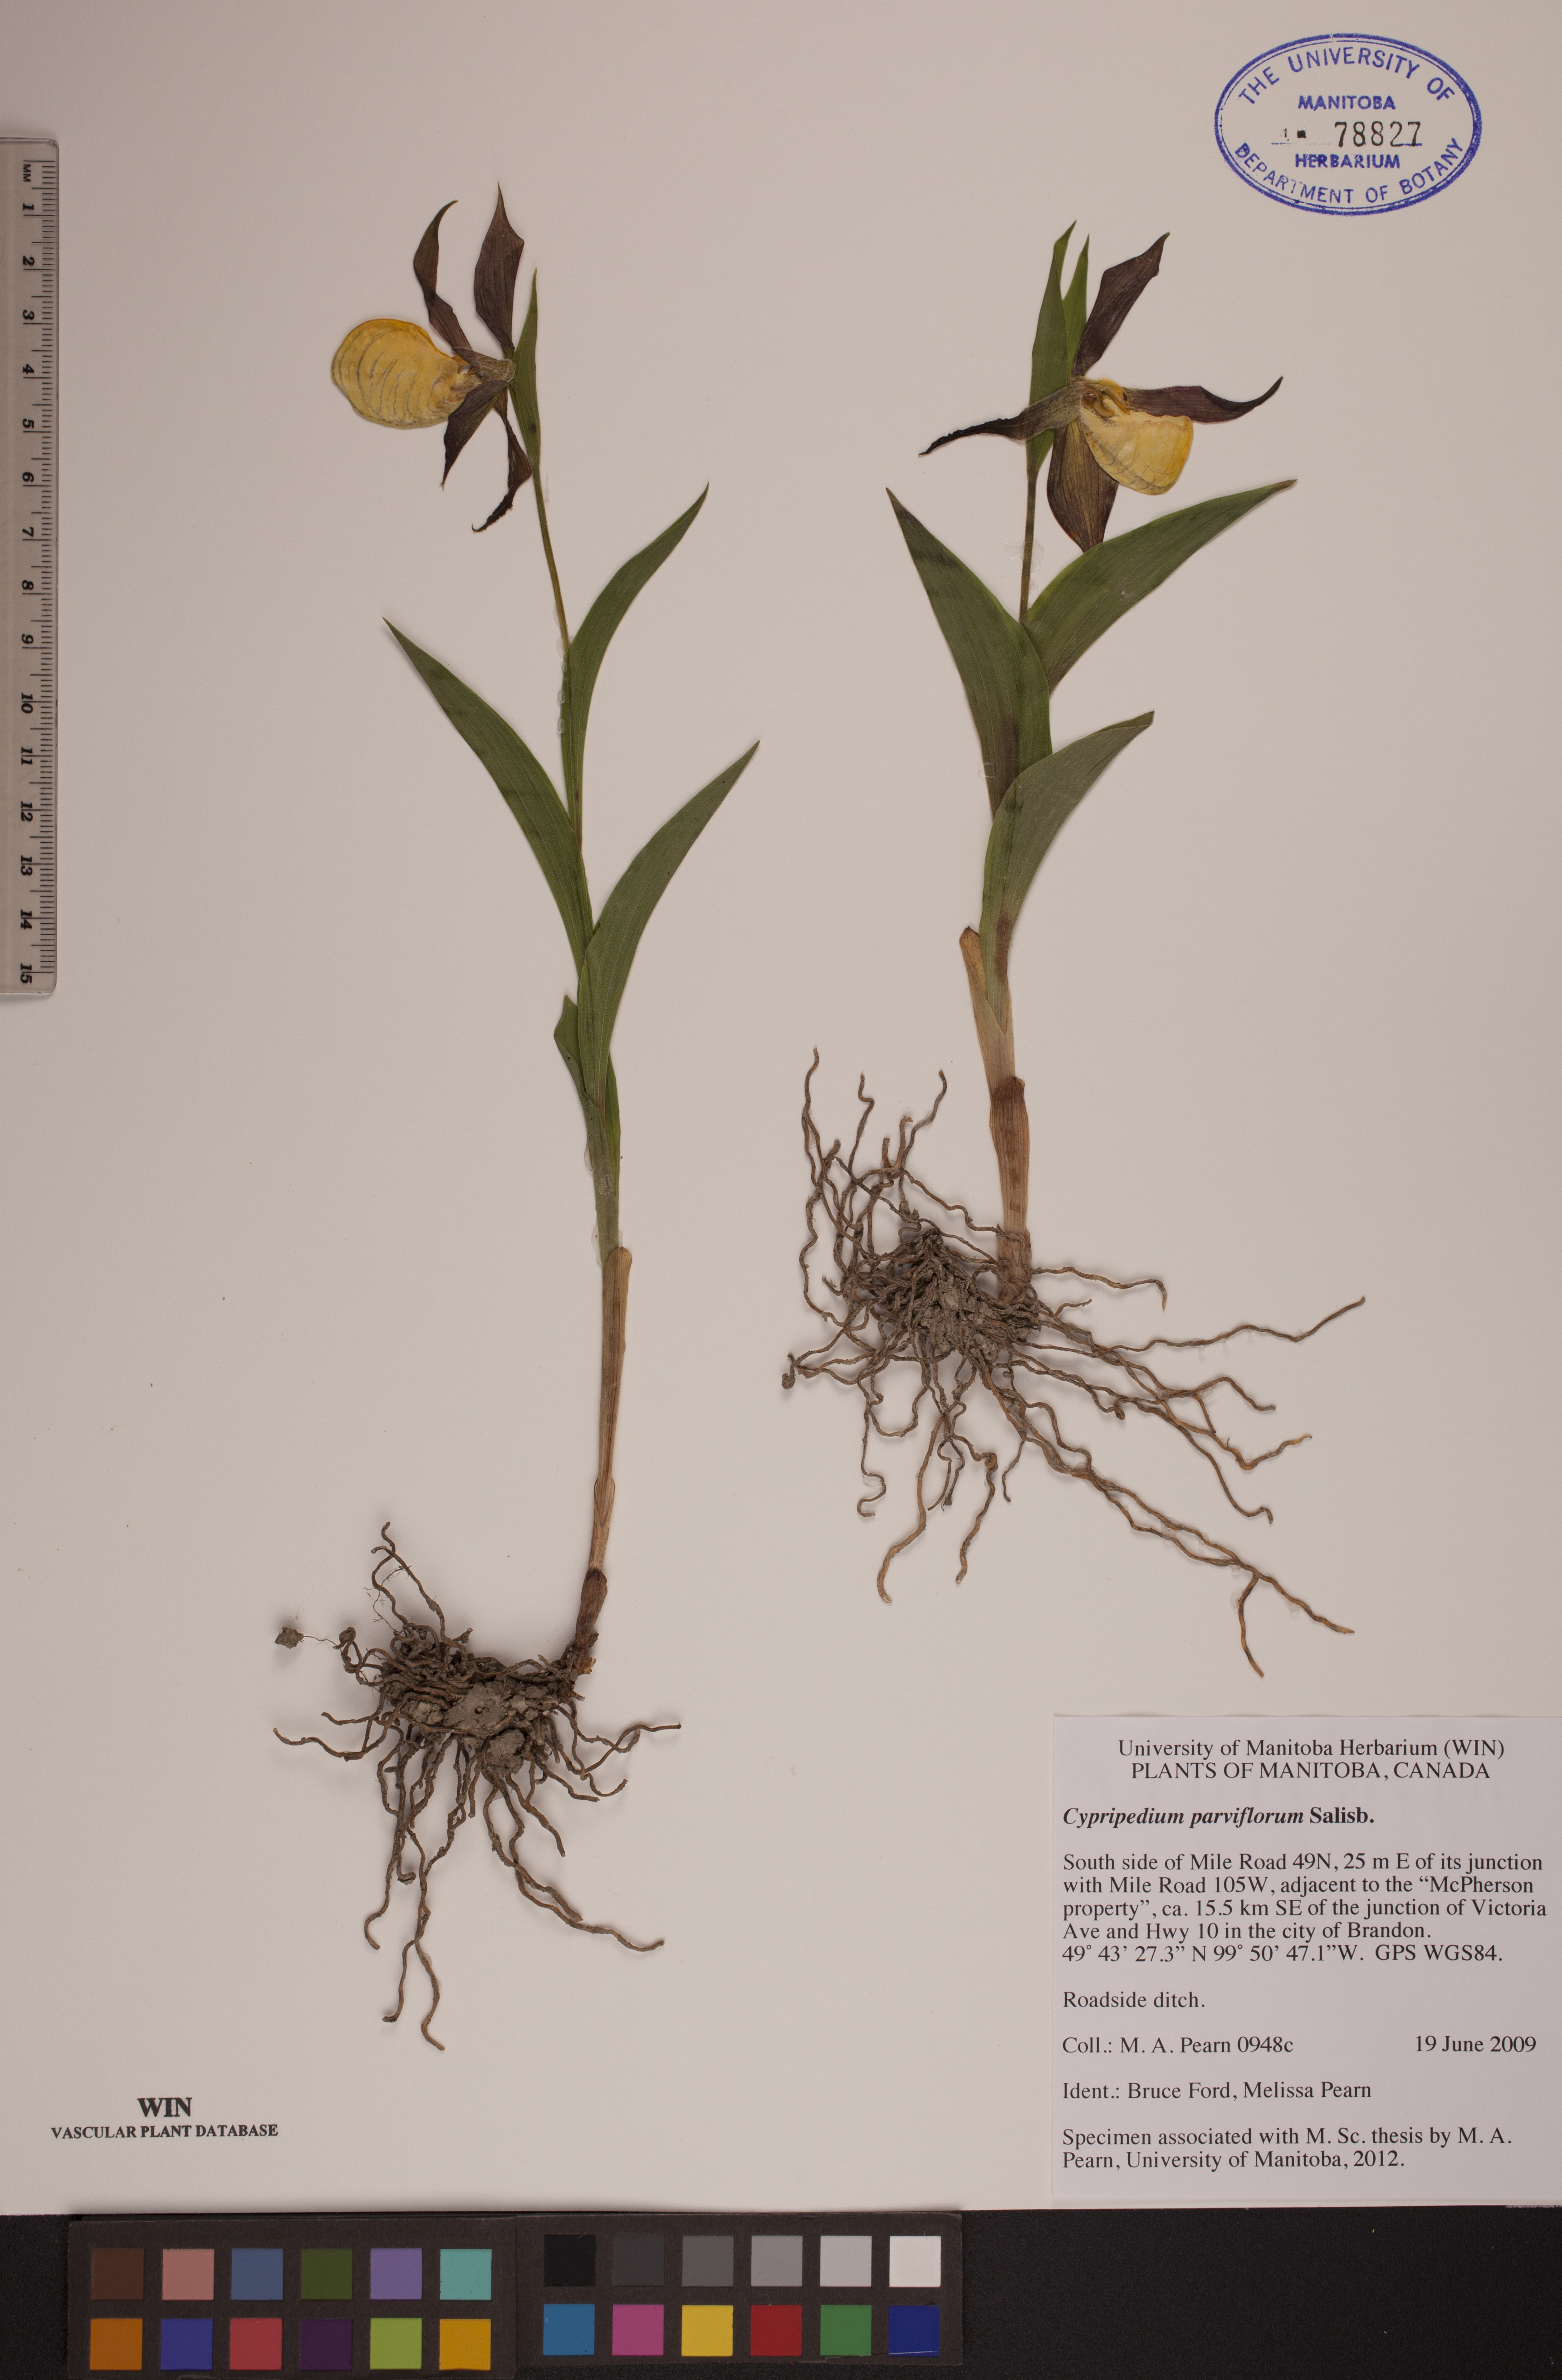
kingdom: Plantae
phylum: Tracheophyta
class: Liliopsida
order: Asparagales
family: Orchidaceae
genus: Cypripedium
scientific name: Cypripedium parviflorum
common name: American yellow lady's-slipper
